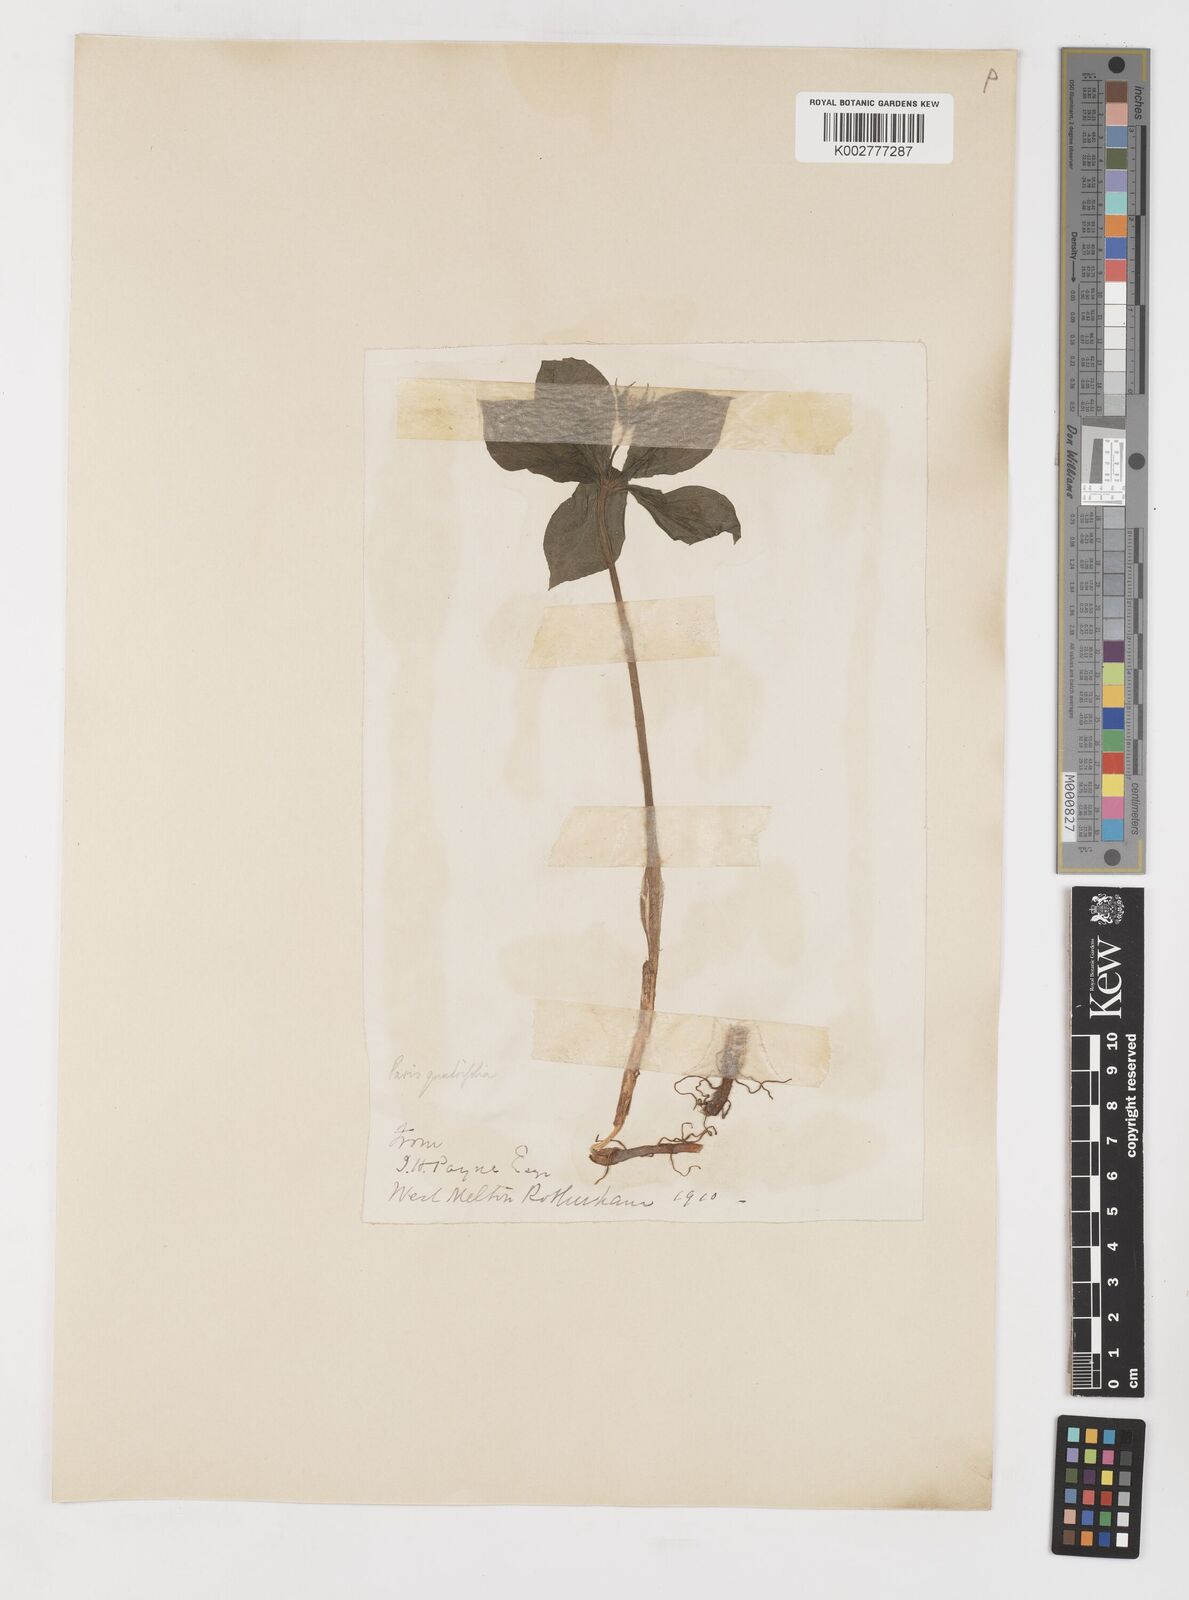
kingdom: Plantae
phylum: Tracheophyta
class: Liliopsida
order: Liliales
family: Melanthiaceae
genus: Paris
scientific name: Paris quadrifolia
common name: Herb-paris
